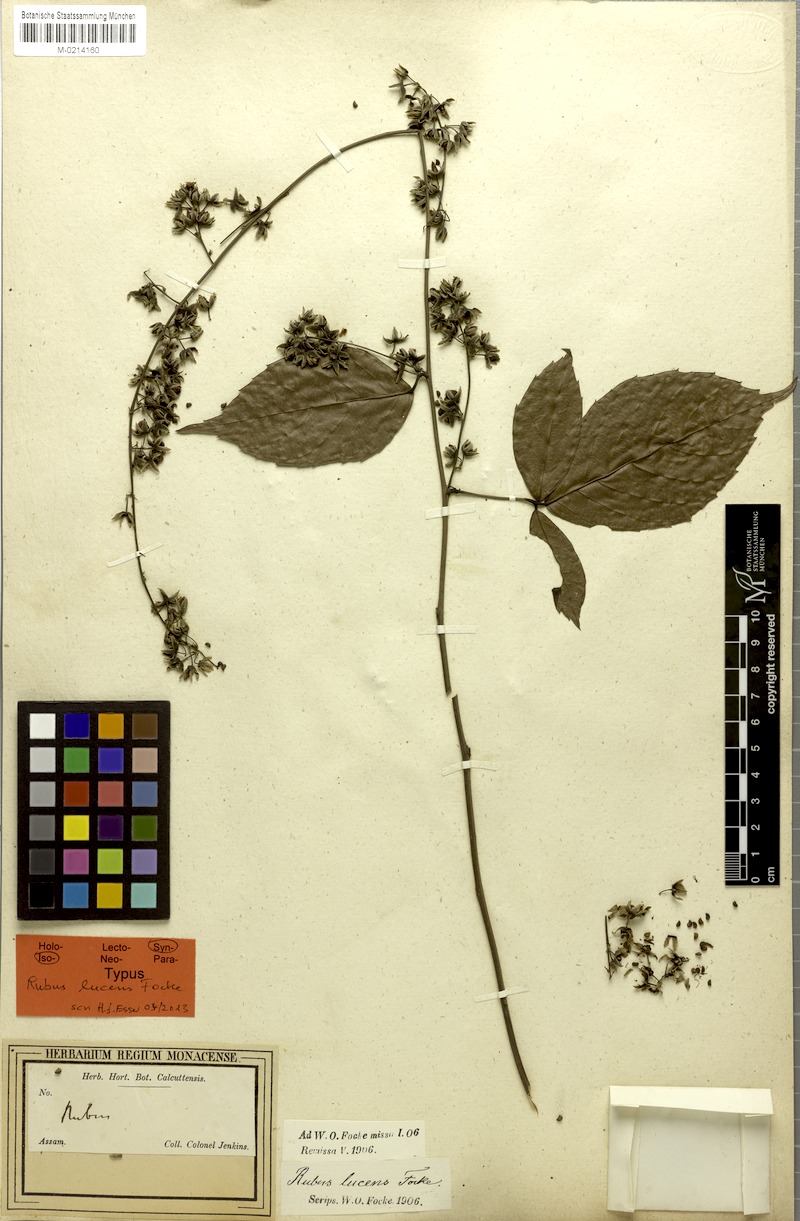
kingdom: Plantae
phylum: Tracheophyta
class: Magnoliopsida
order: Rosales
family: Rosaceae
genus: Rubus
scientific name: Rubus lucens
